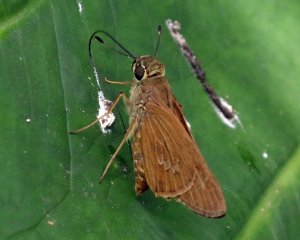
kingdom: Animalia
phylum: Arthropoda
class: Insecta
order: Lepidoptera
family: Hesperiidae
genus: Calpodes
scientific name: Calpodes ethlius
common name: Brazilian Skipper
